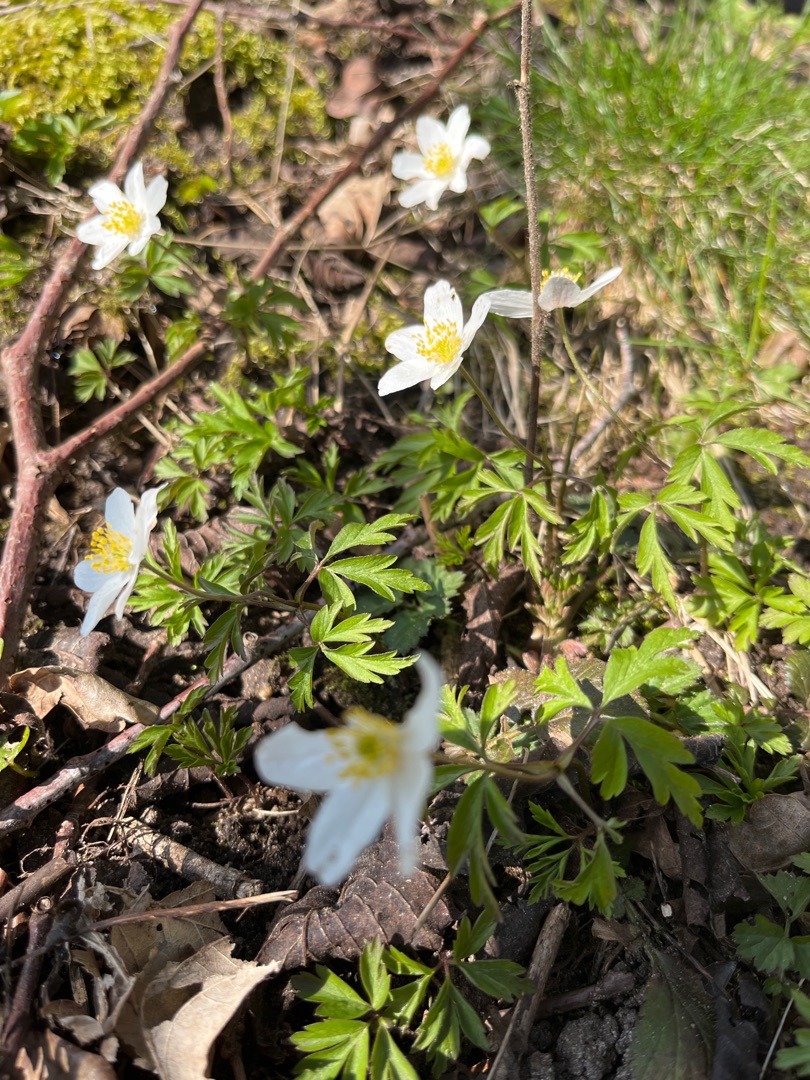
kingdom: Plantae
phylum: Tracheophyta
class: Magnoliopsida
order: Ranunculales
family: Ranunculaceae
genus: Anemone
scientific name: Anemone nemorosa
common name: Hvid anemone
